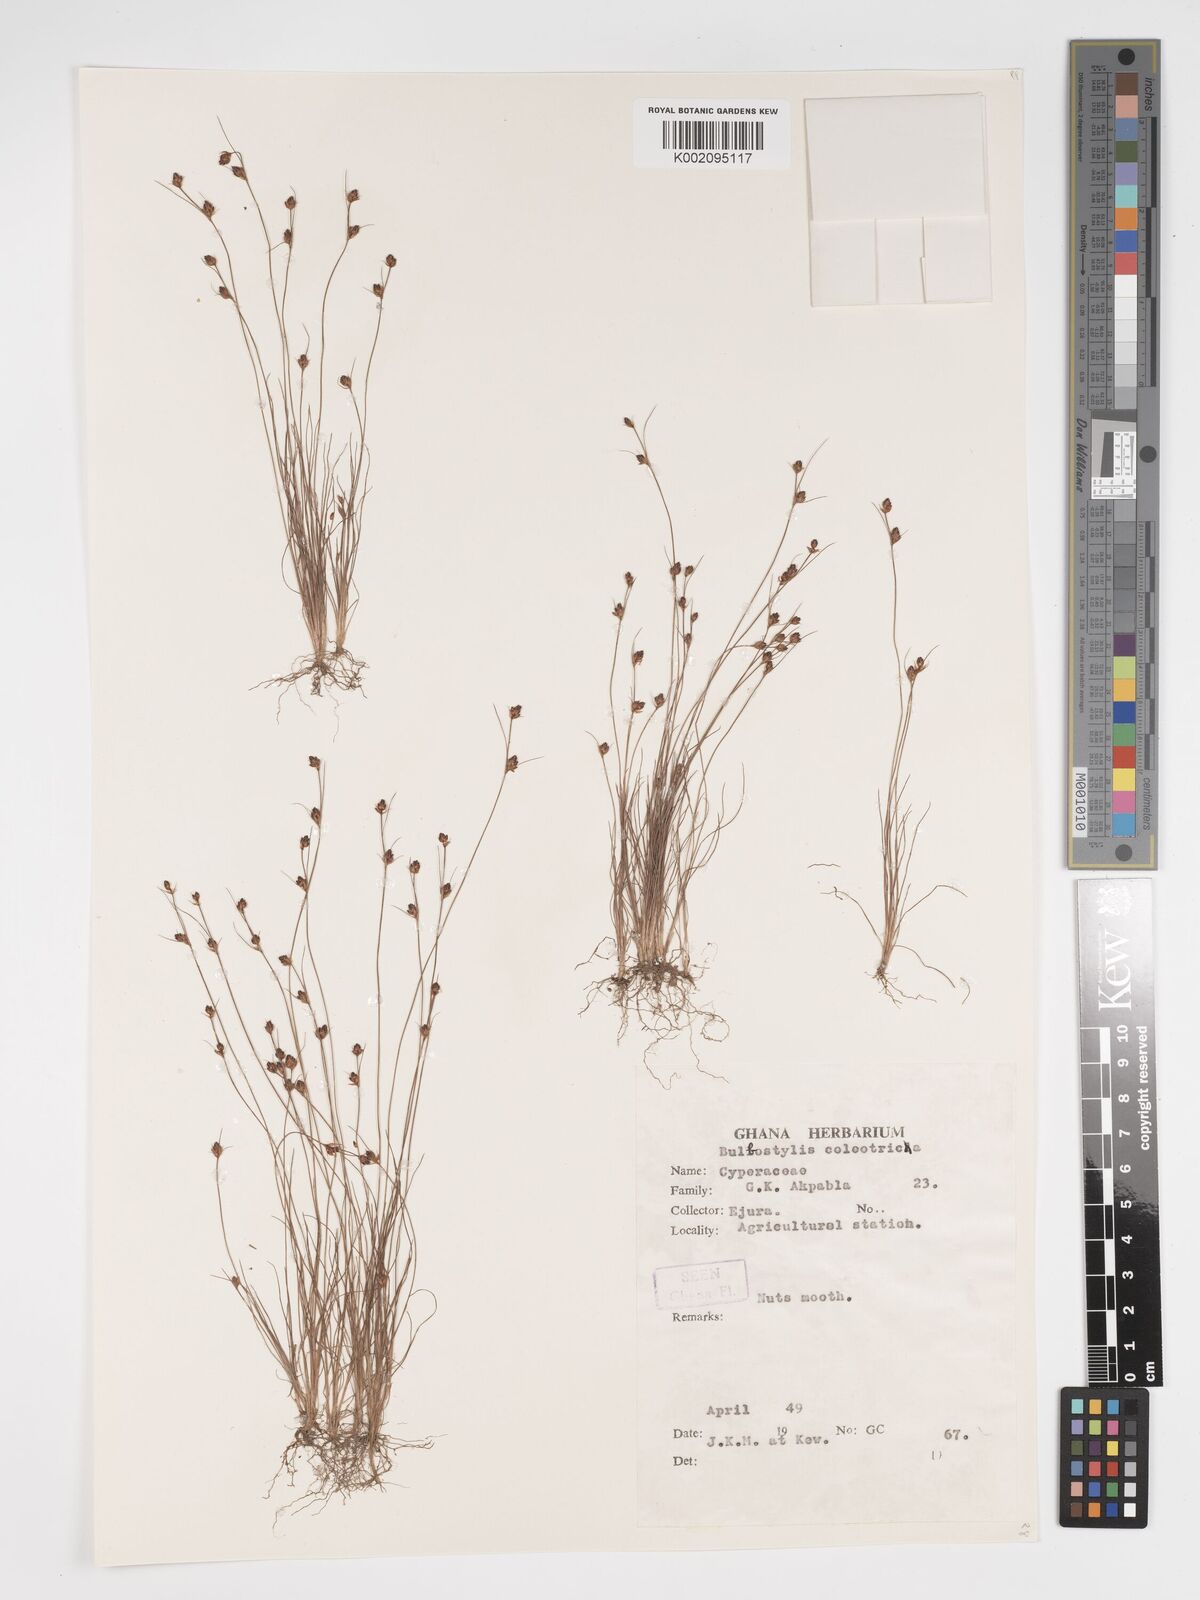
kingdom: Plantae
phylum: Tracheophyta
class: Liliopsida
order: Poales
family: Cyperaceae
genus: Bulbostylis
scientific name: Bulbostylis coleotricha
